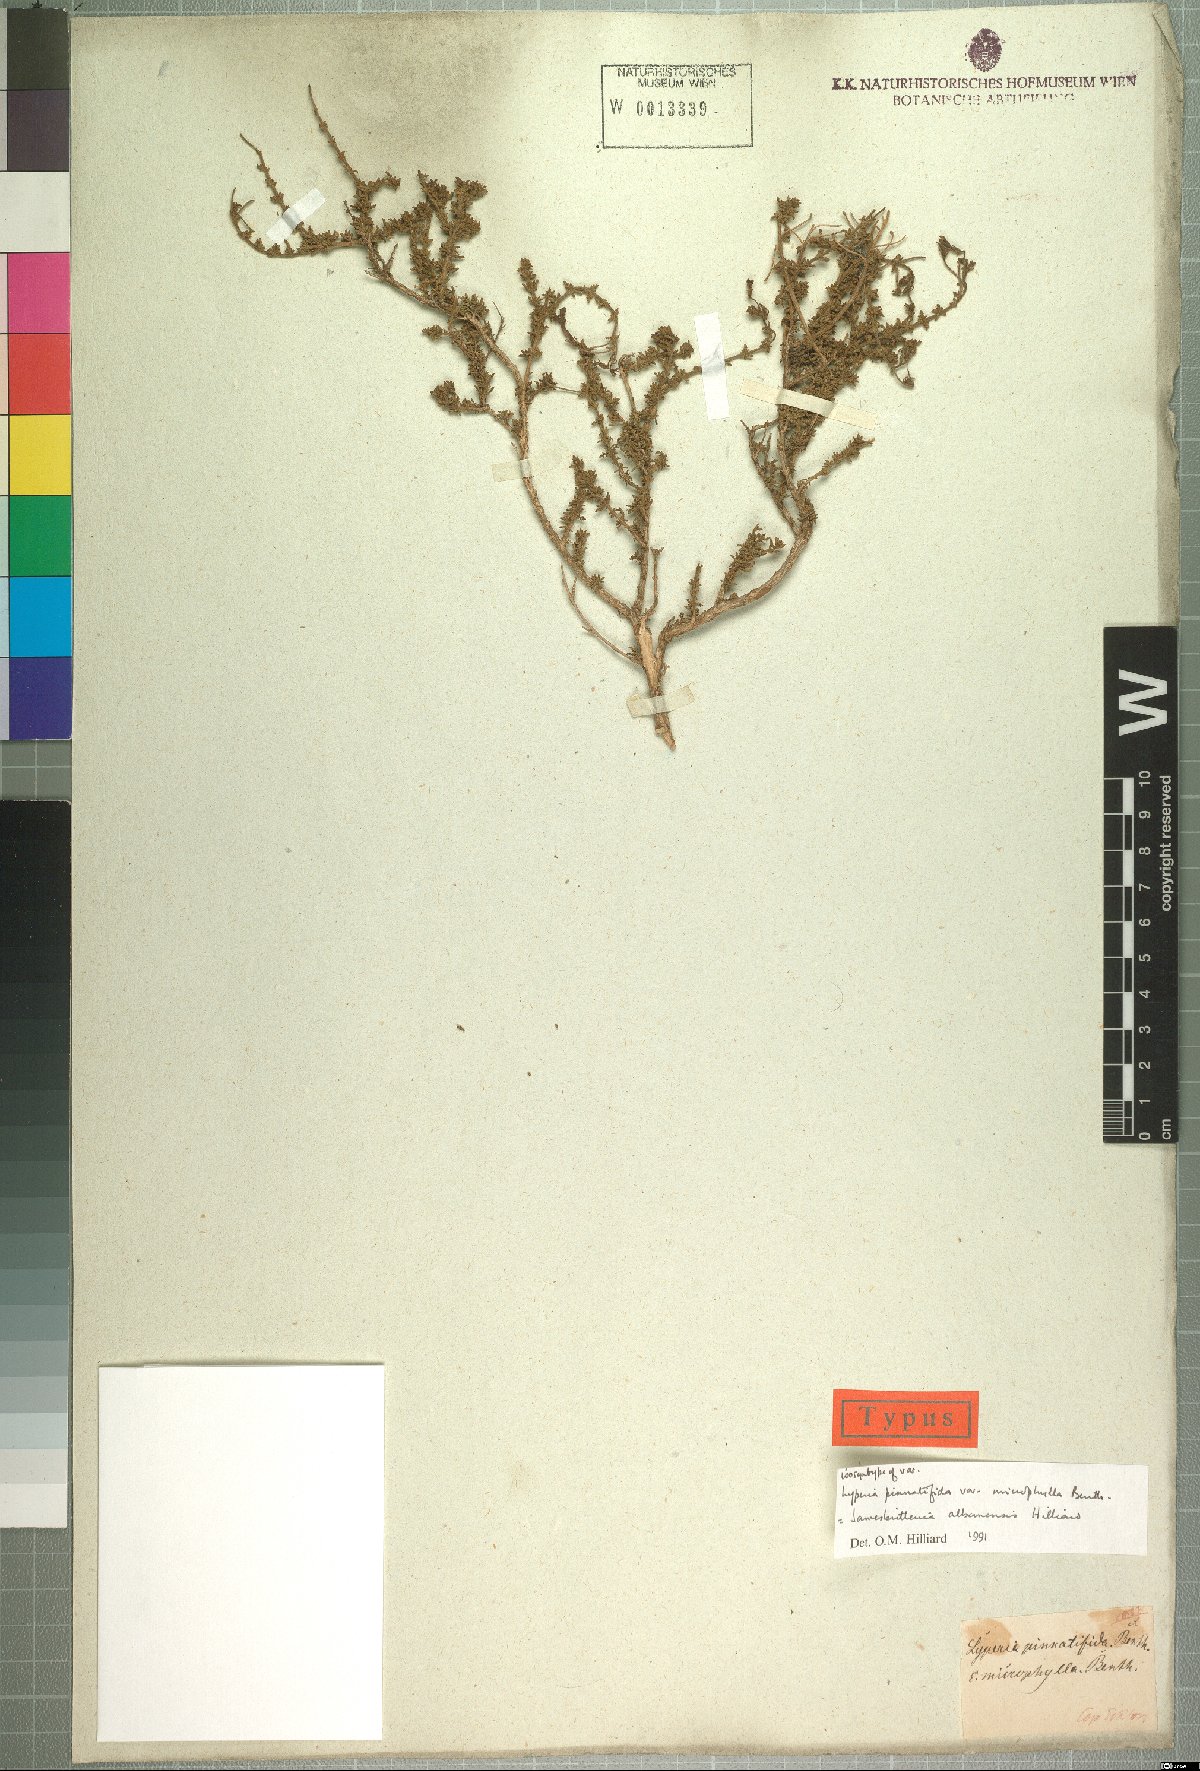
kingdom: Plantae
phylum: Tracheophyta
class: Magnoliopsida
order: Lamiales
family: Scrophulariaceae
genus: Jamesbrittenia
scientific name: Jamesbrittenia albanensis
